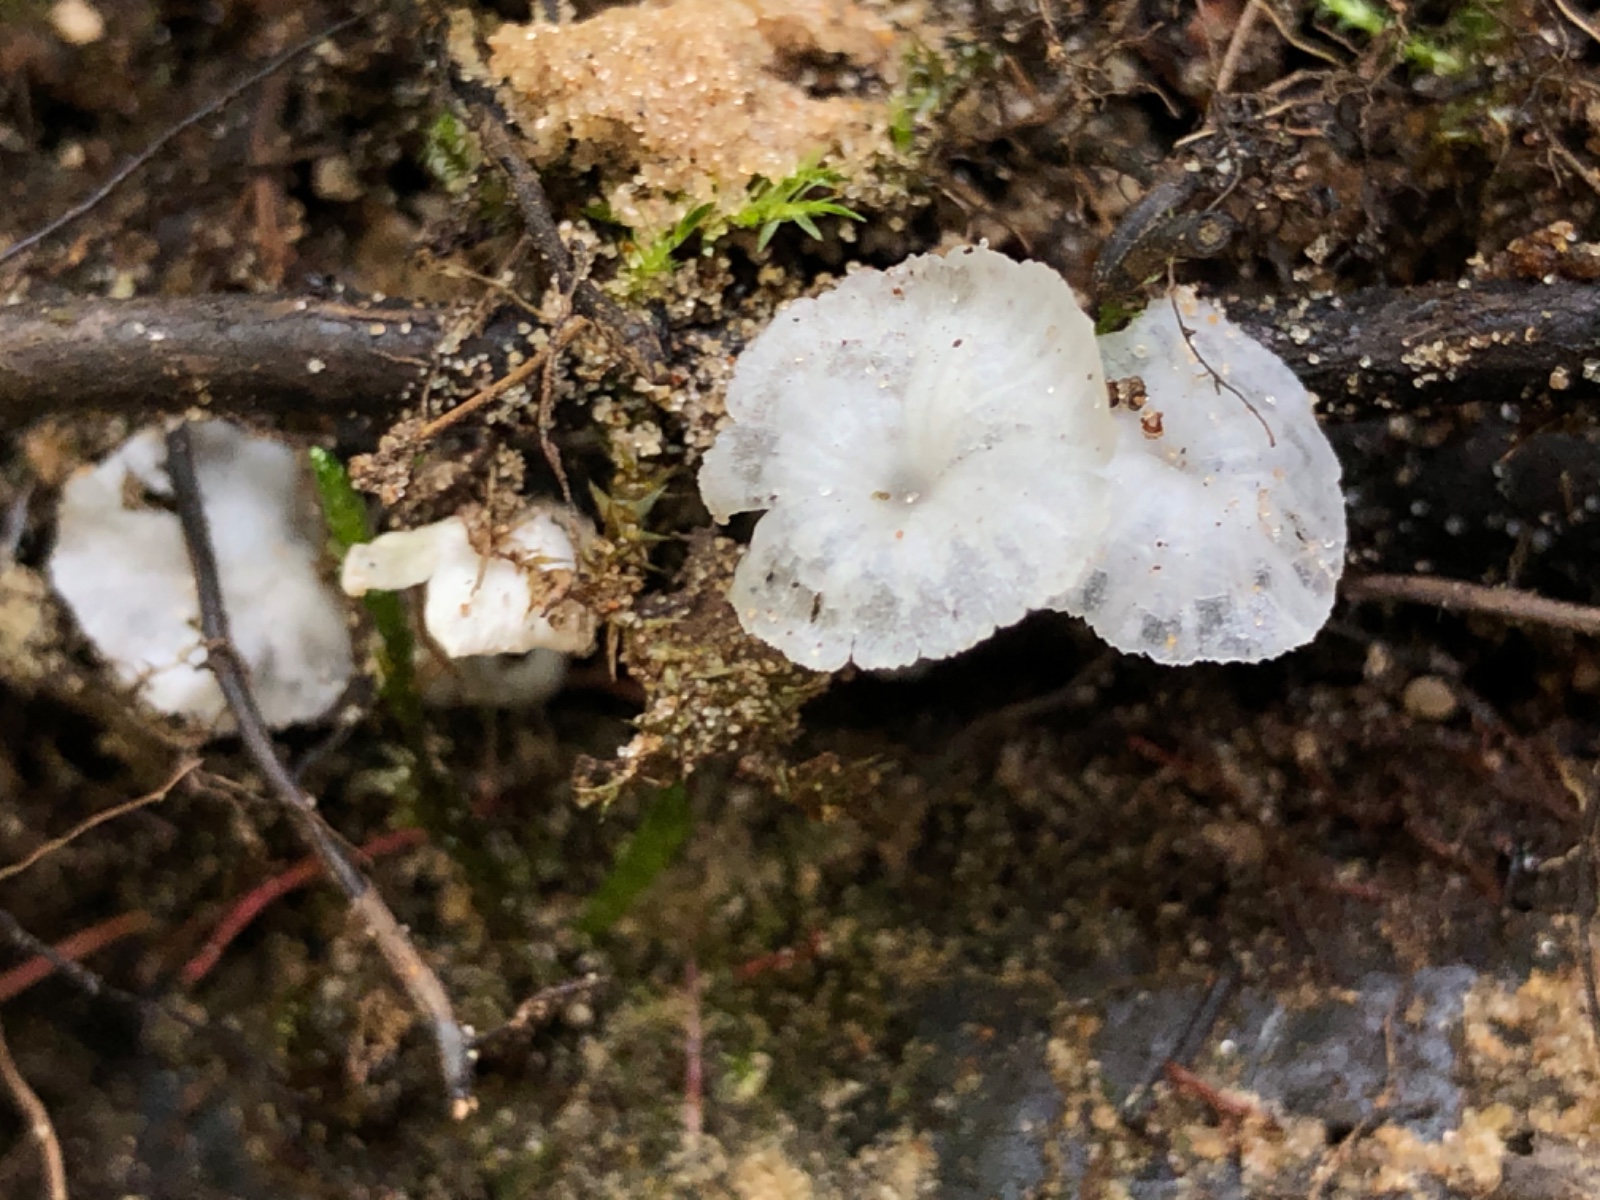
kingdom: Fungi
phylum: Basidiomycota
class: Agaricomycetes
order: Agaricales
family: Tricholomataceae
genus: Delicatula
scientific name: Delicatula integrella
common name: slørhuesvamp
